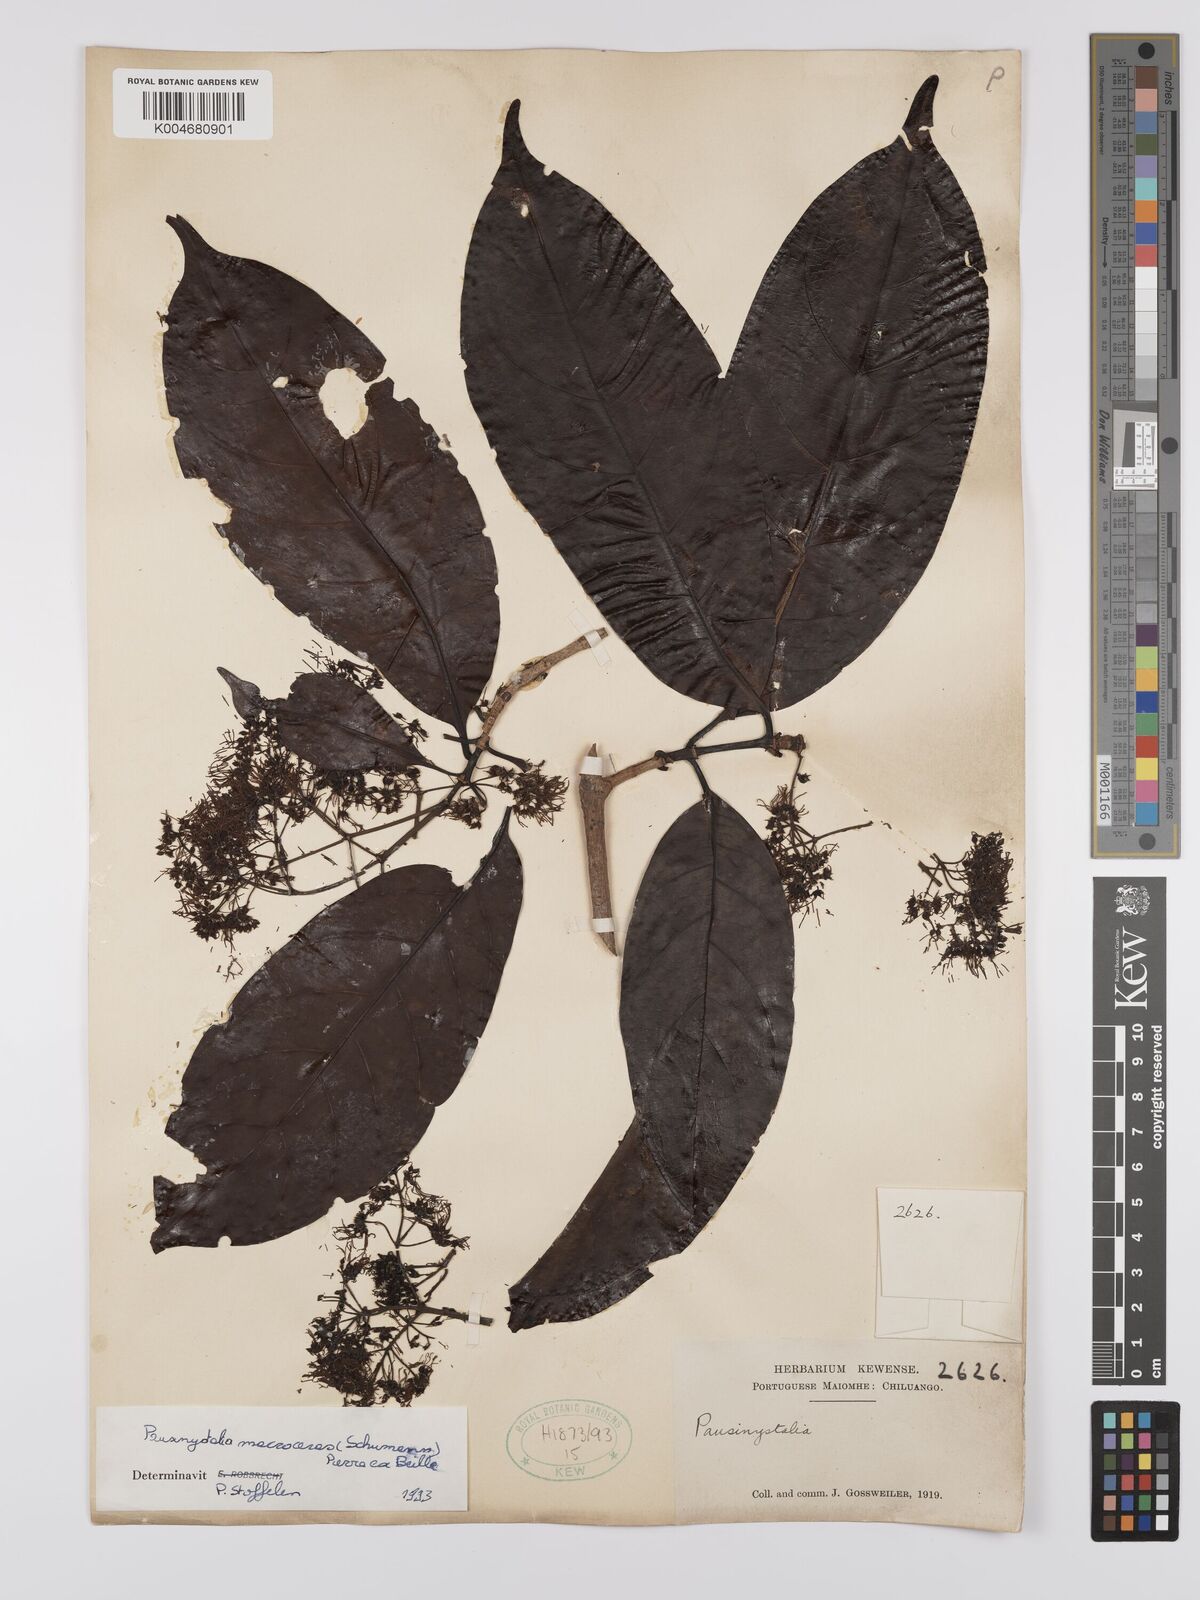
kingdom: Plantae
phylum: Tracheophyta
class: Magnoliopsida
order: Gentianales
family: Rubiaceae
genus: Corynanthe
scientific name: Corynanthe macroceras
